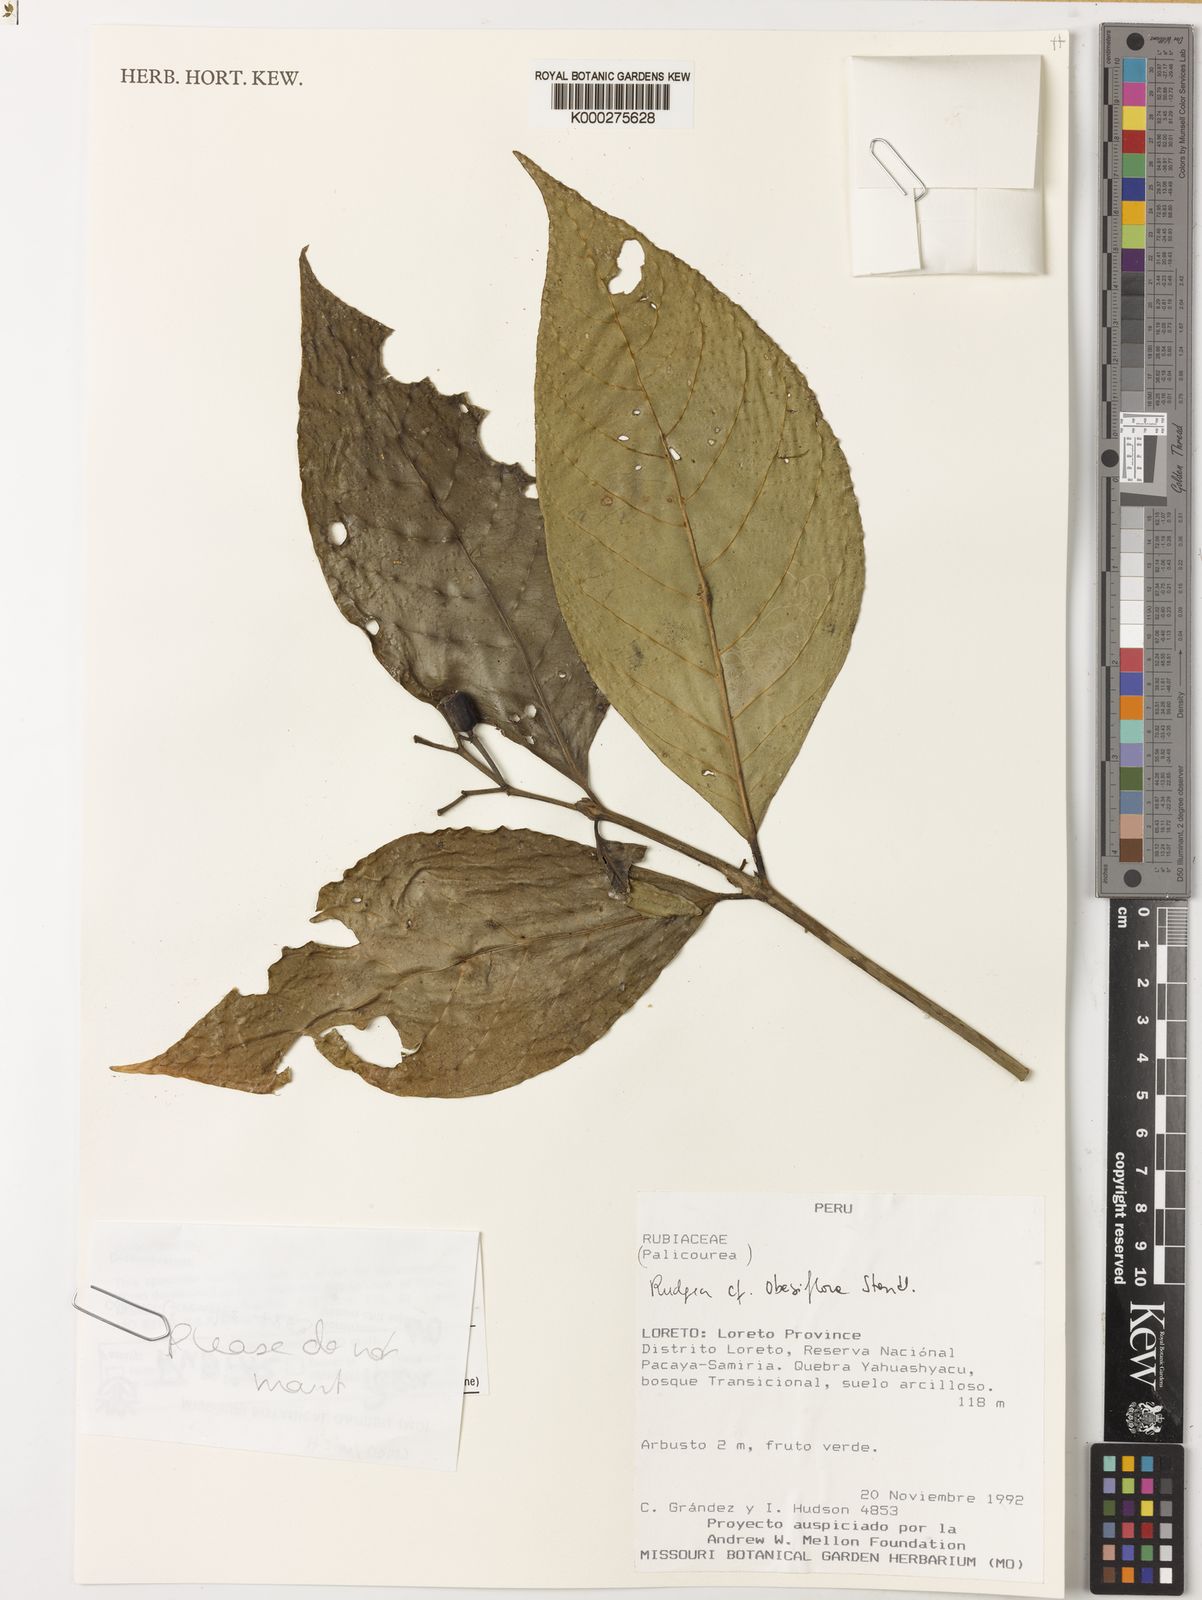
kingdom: Plantae
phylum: Tracheophyta
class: Magnoliopsida
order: Gentianales
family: Rubiaceae
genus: Rudgea
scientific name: Rudgea obesiflora
